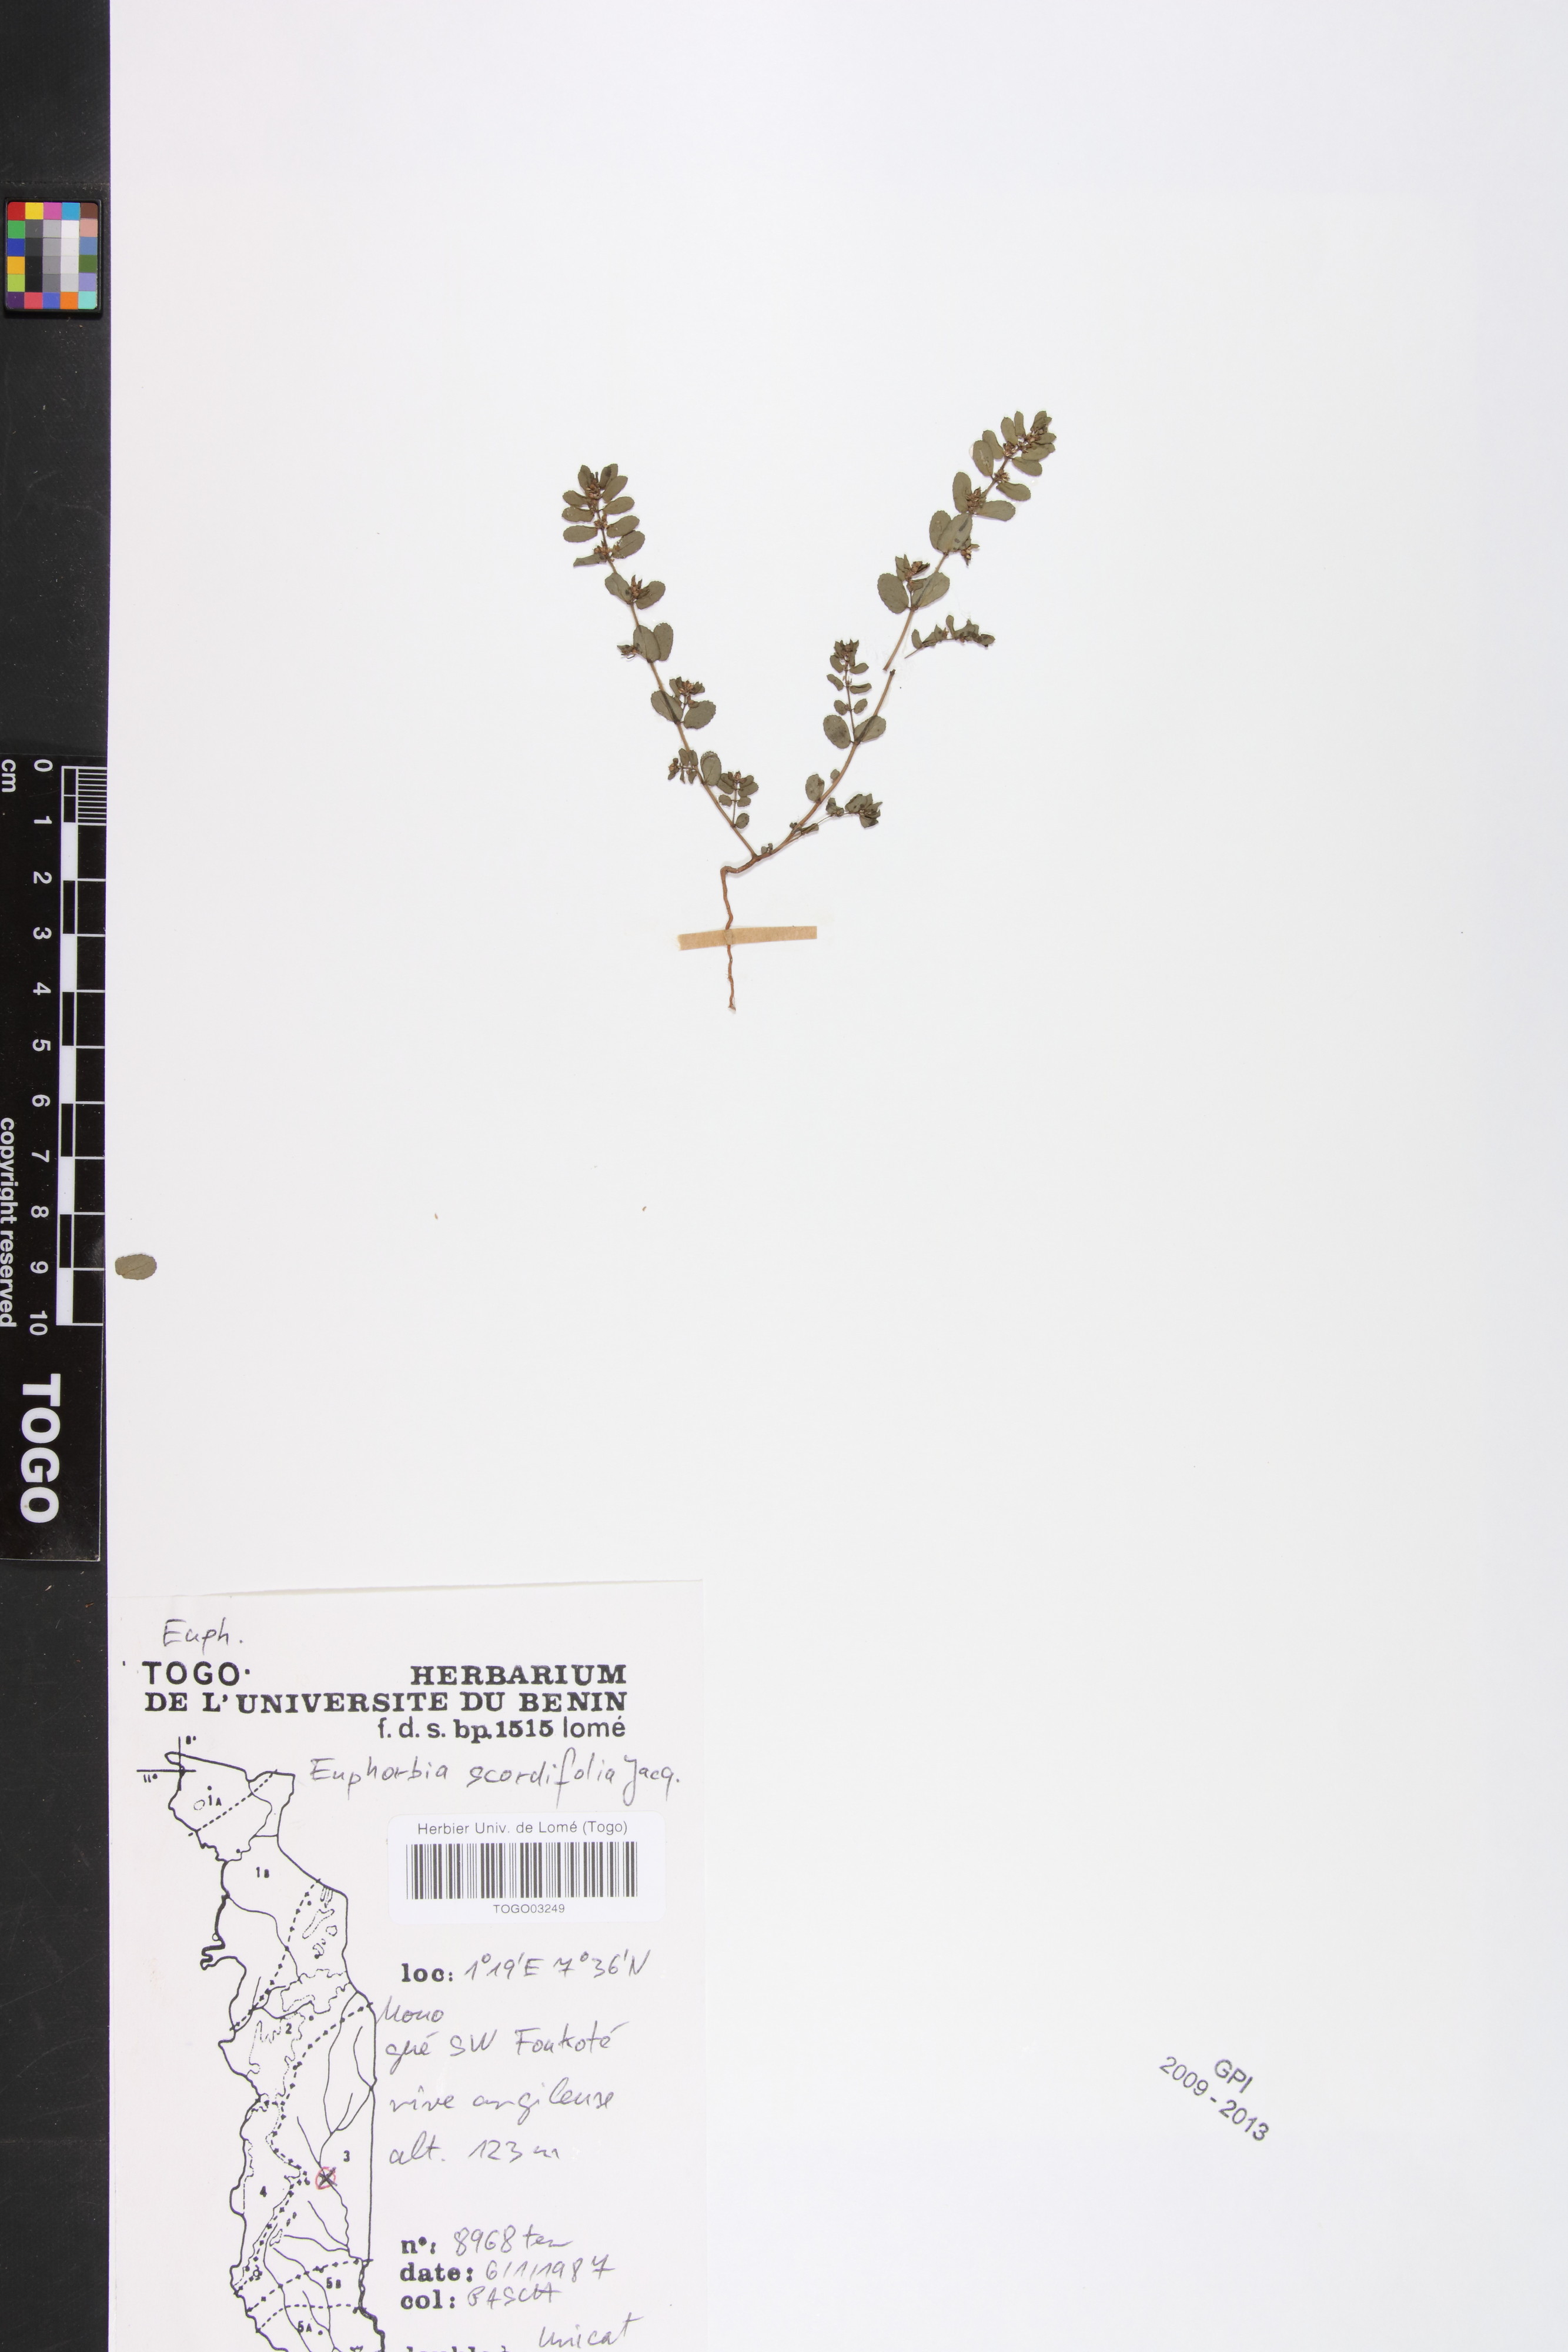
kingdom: Plantae
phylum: Tracheophyta
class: Magnoliopsida
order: Malpighiales
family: Euphorbiaceae
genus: Euphorbia
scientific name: Euphorbia scordiifolia
